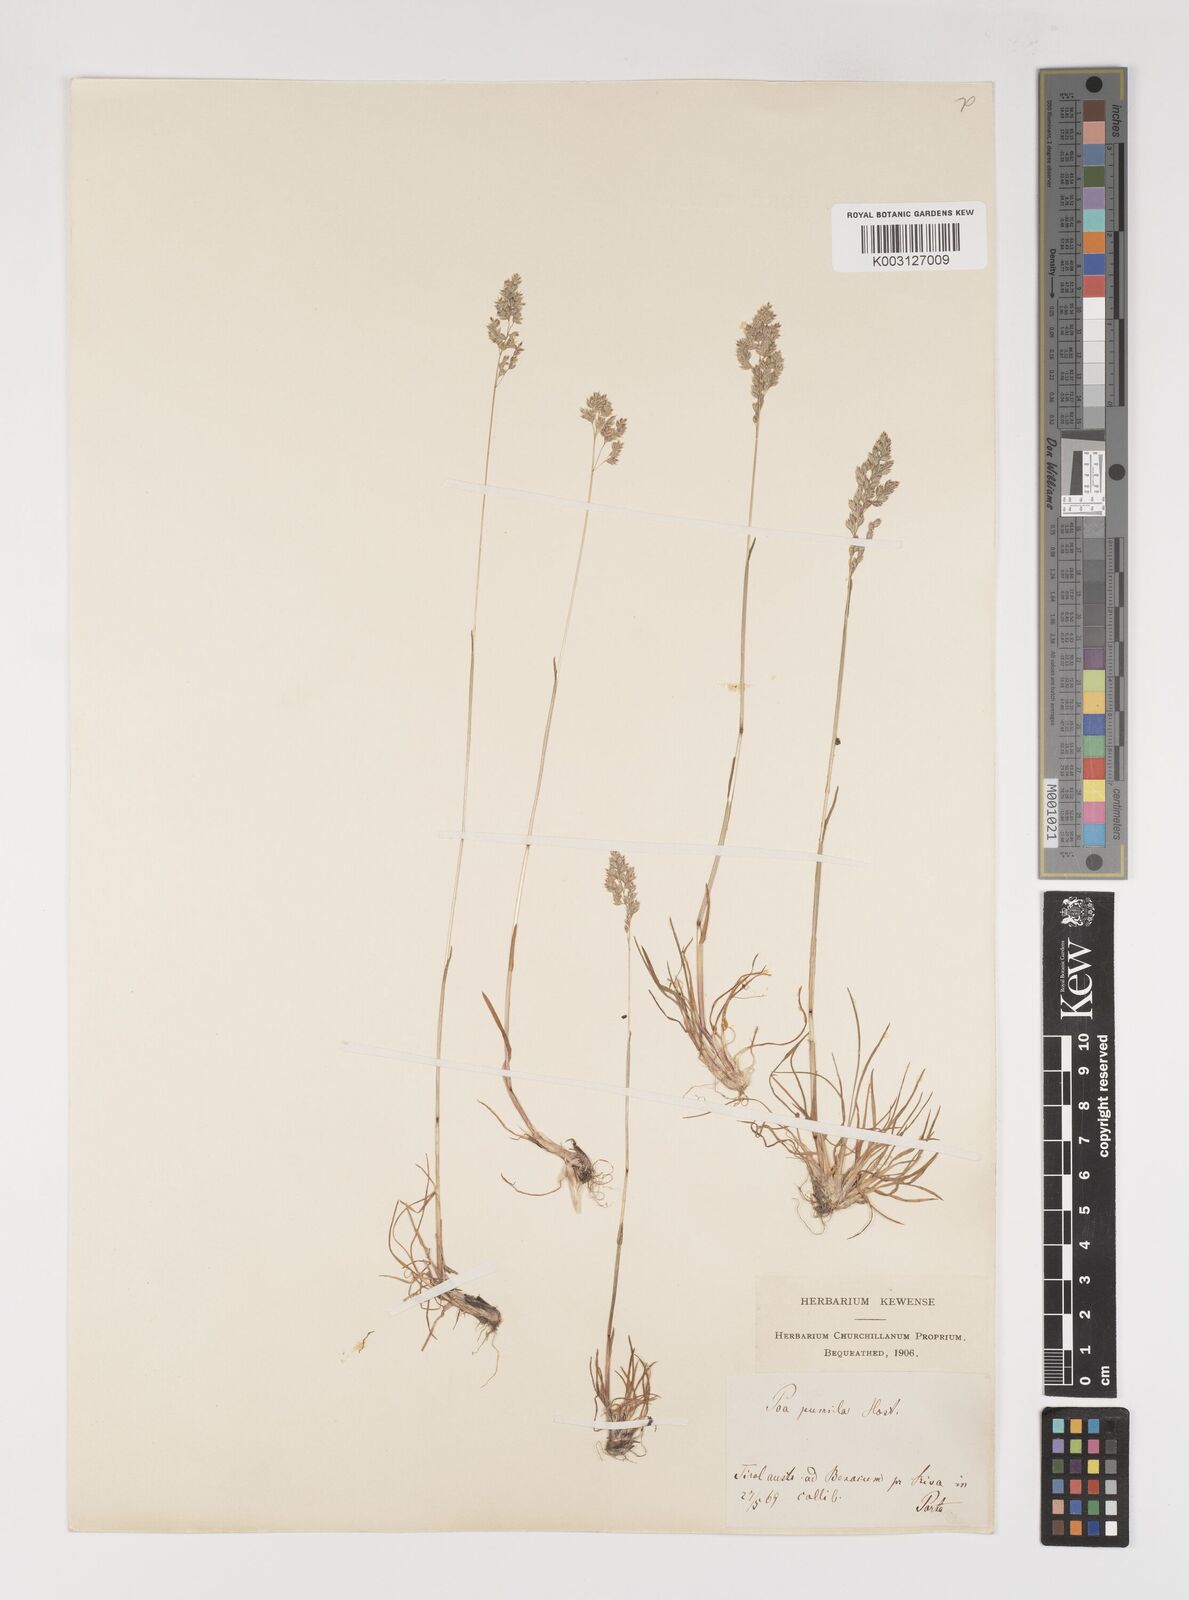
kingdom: Plantae
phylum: Tracheophyta
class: Liliopsida
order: Poales
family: Poaceae
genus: Poa
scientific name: Poa pumila
